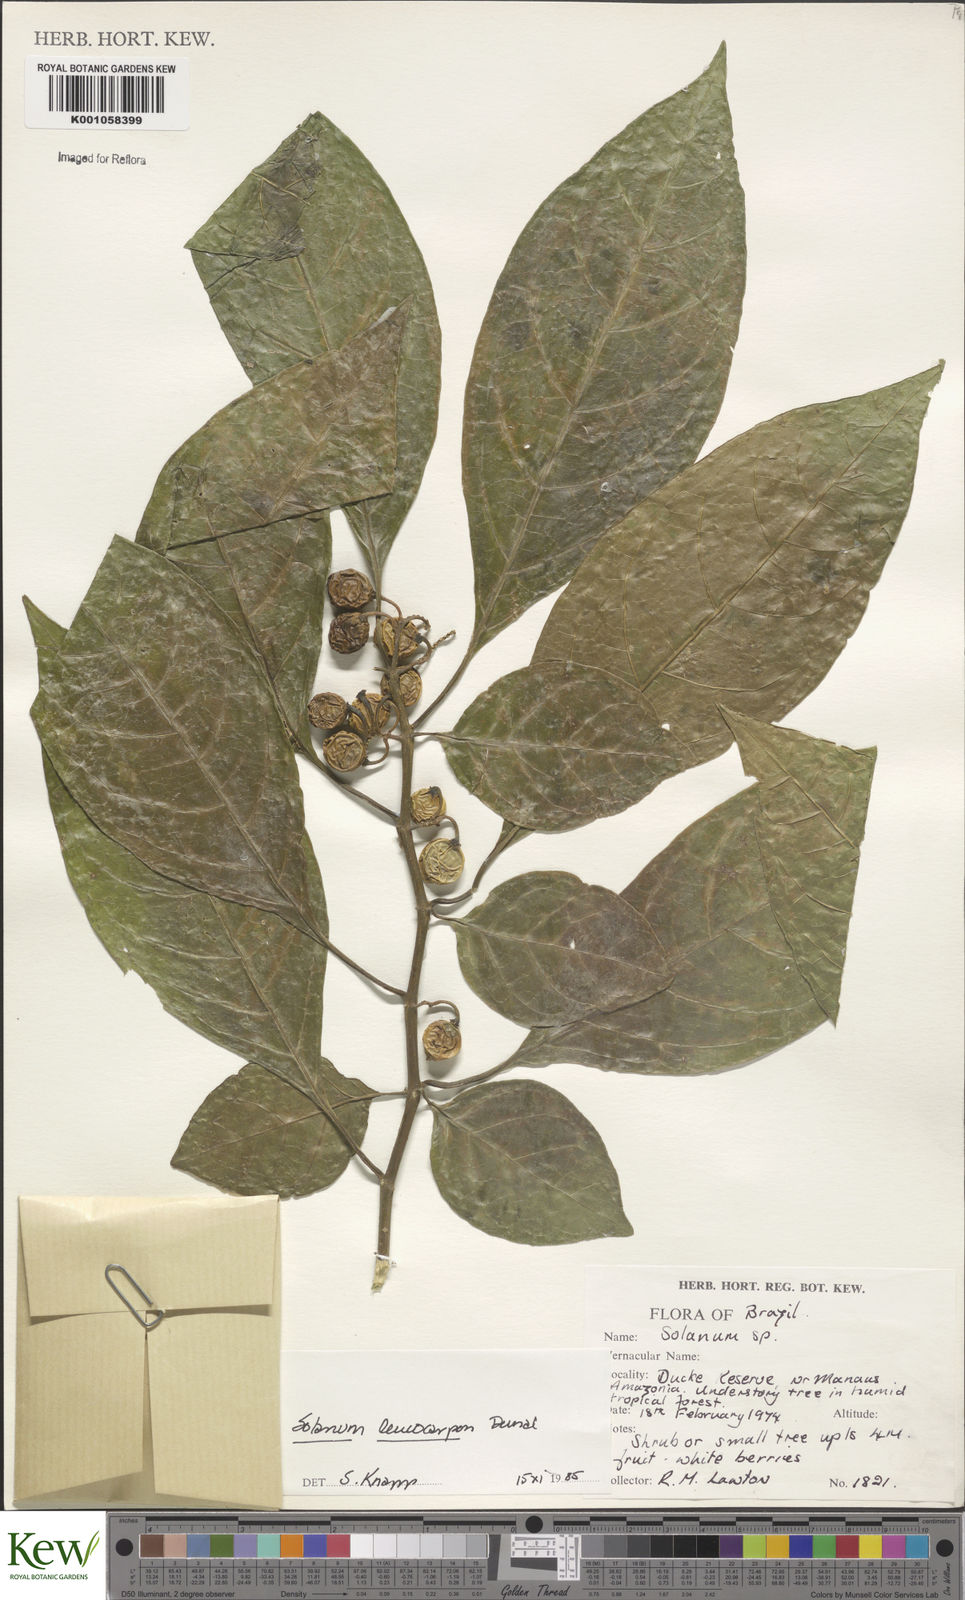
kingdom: Plantae
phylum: Tracheophyta
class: Magnoliopsida
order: Solanales
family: Solanaceae
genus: Solanum
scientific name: Solanum leucocarpon
